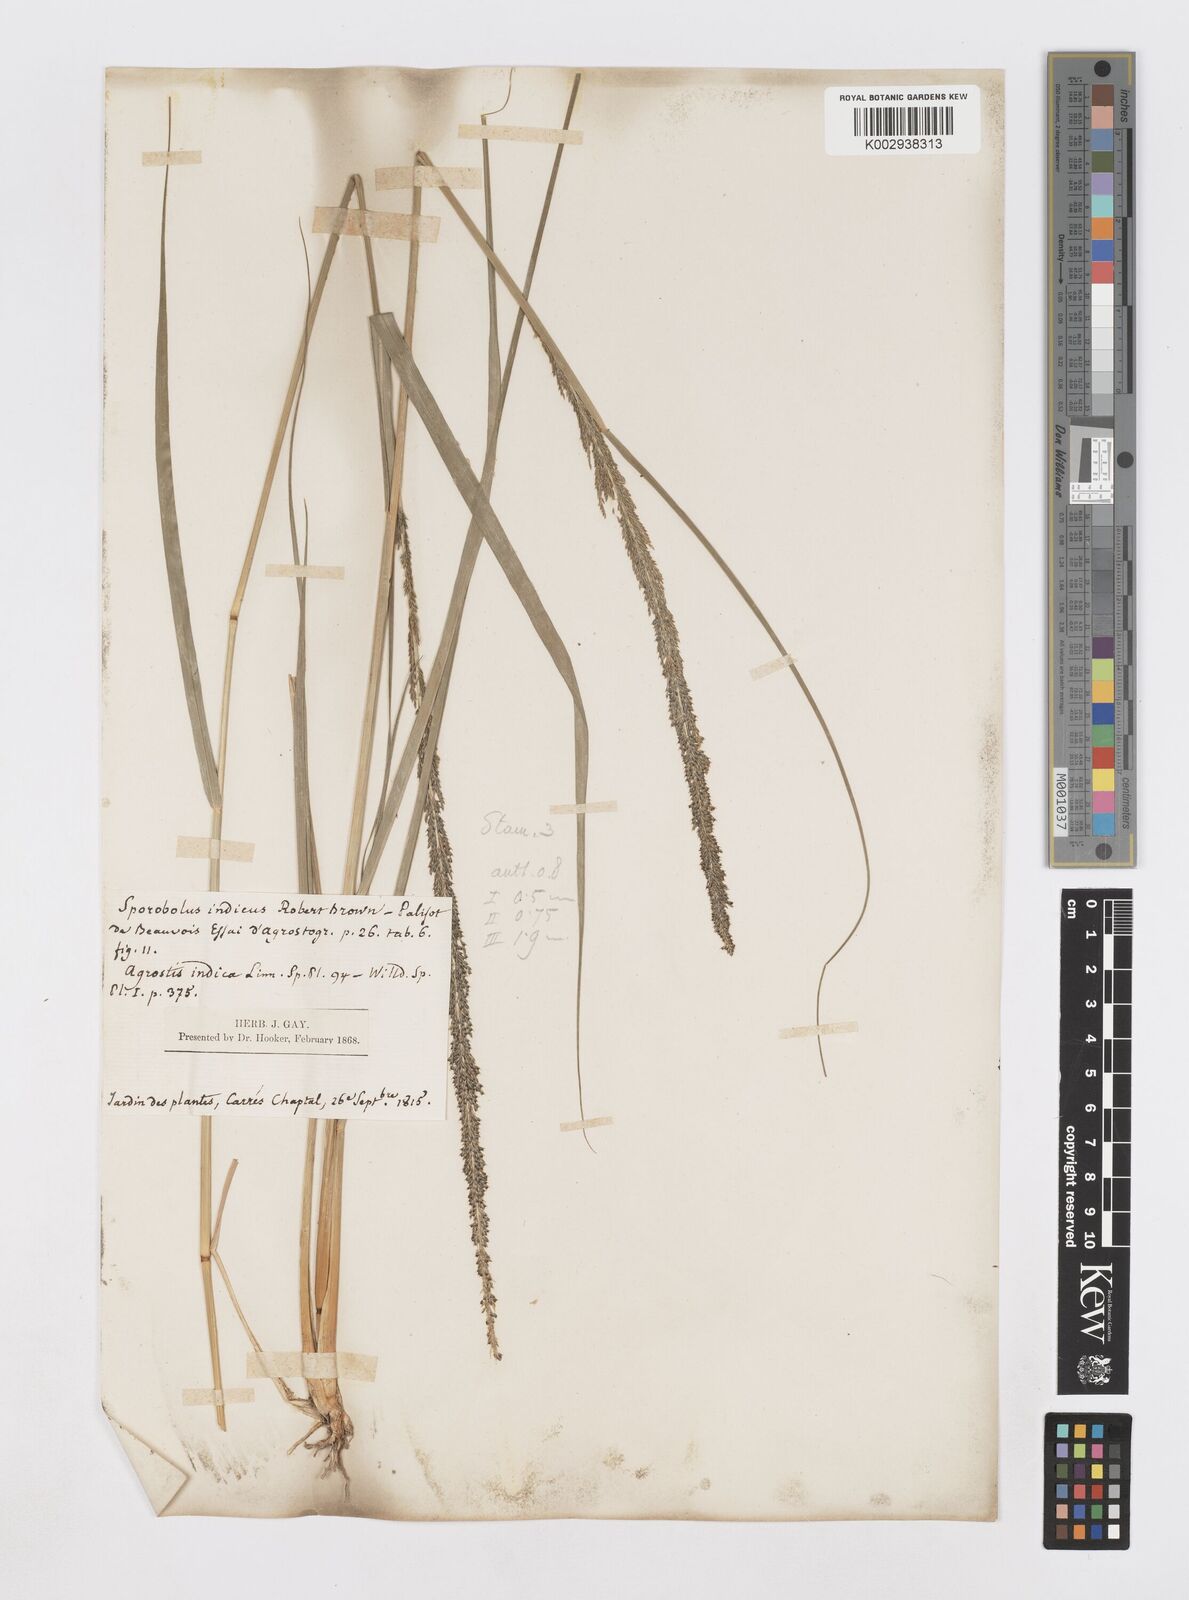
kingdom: Plantae
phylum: Tracheophyta
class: Liliopsida
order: Poales
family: Poaceae
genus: Sporobolus
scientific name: Sporobolus indicus
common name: Smut grass
